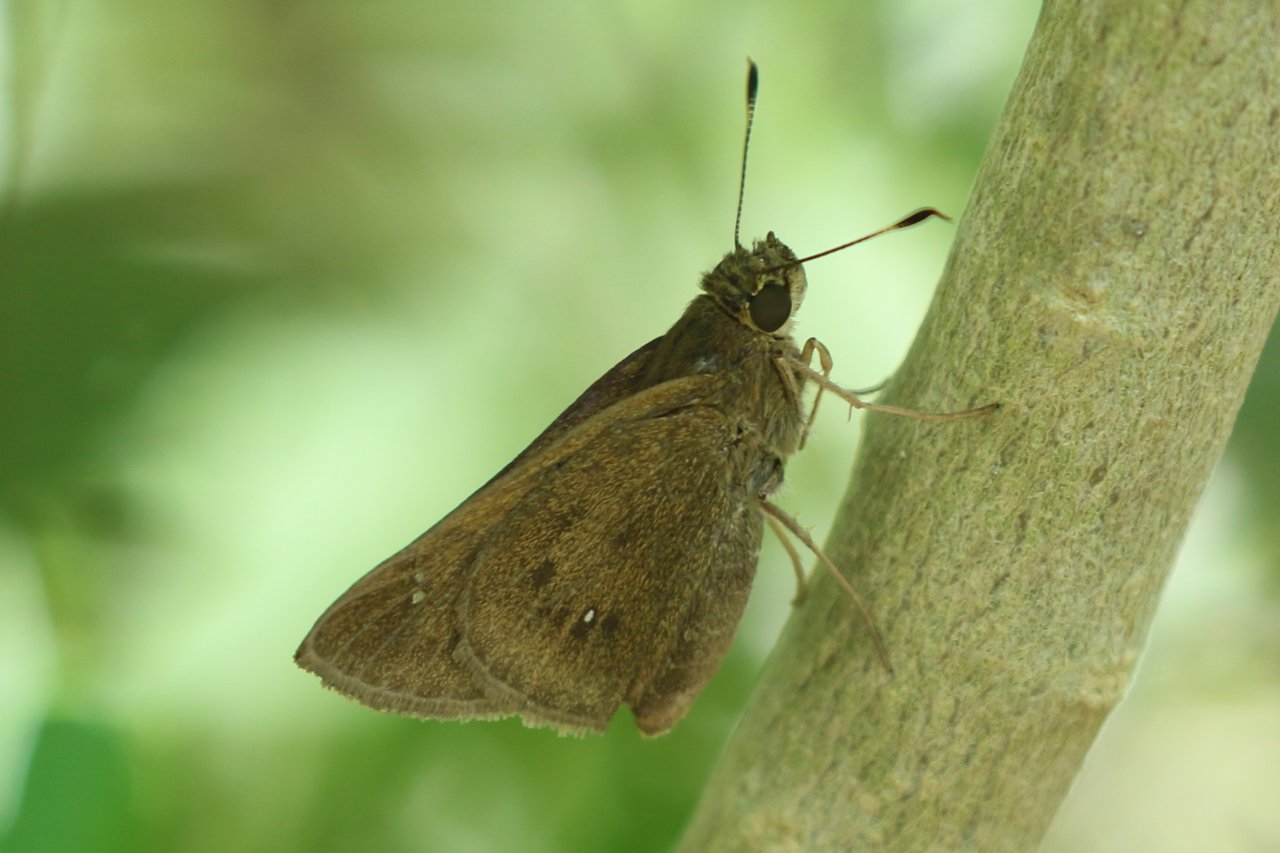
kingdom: Animalia
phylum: Arthropoda
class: Insecta
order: Lepidoptera
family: Hesperiidae
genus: Decinea
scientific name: Decinea percosius
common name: Double-dotted Skipper
